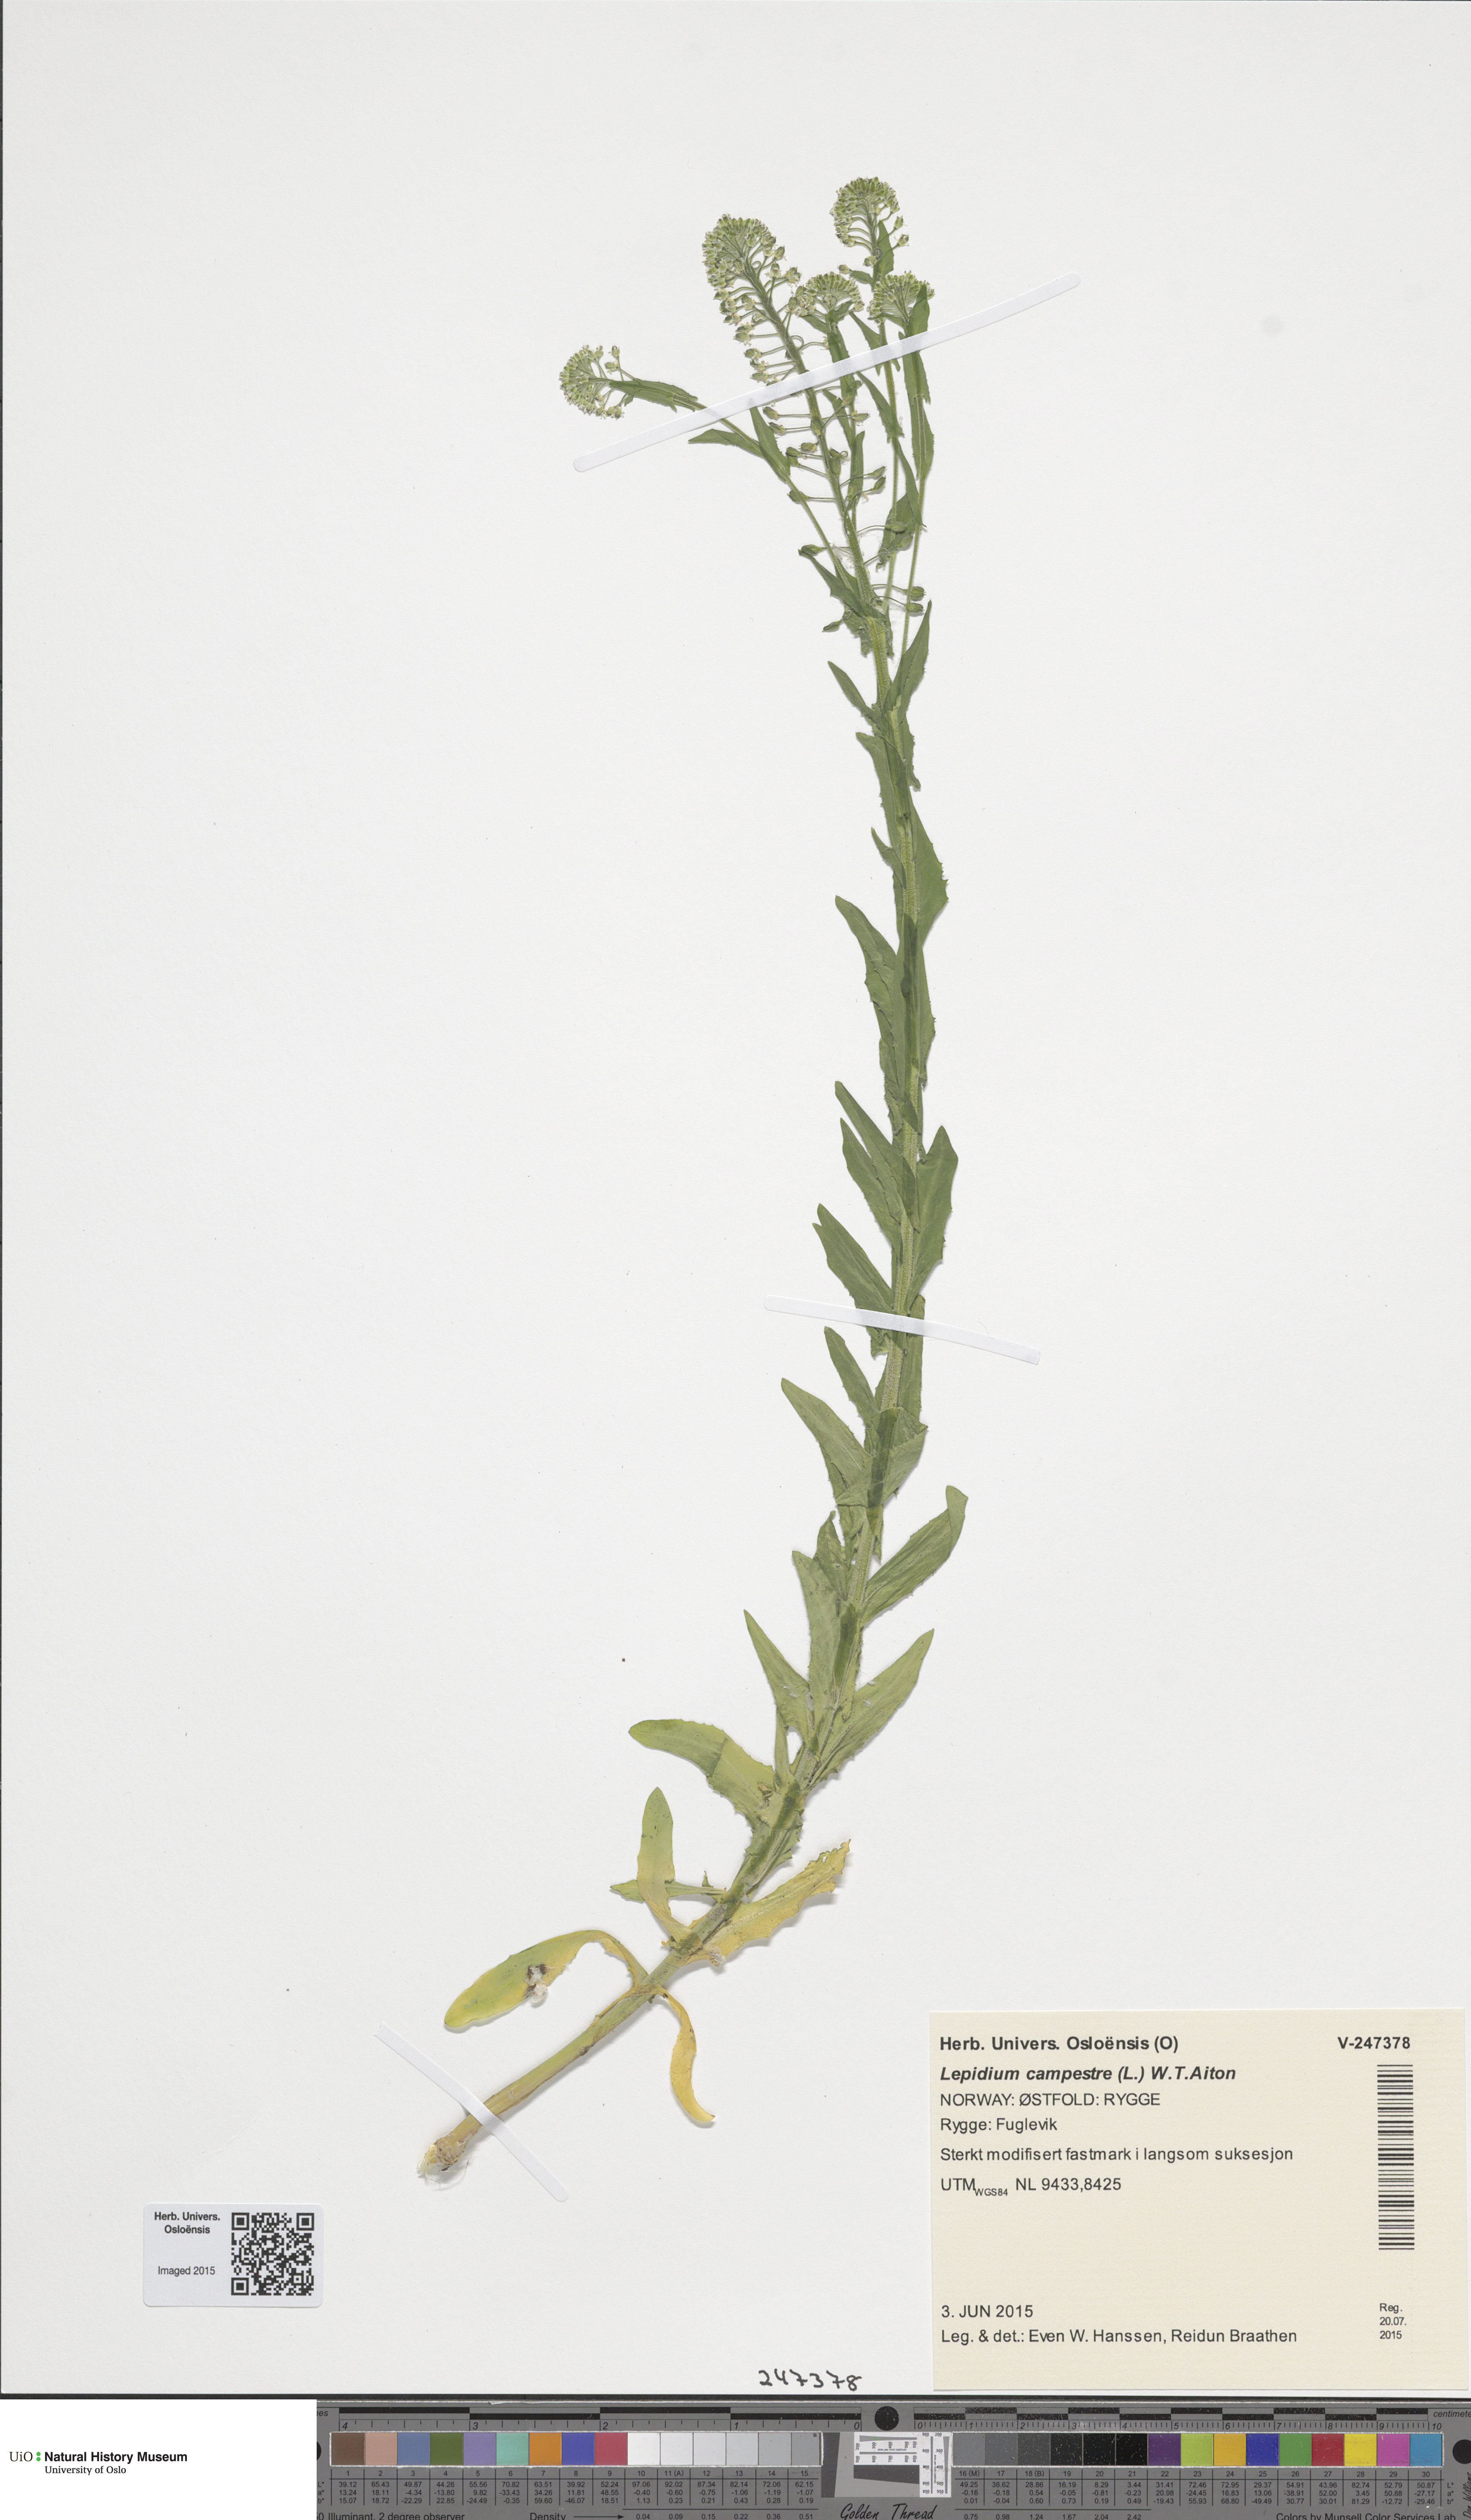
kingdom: Plantae
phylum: Tracheophyta
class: Magnoliopsida
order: Brassicales
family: Brassicaceae
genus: Lepidium
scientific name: Lepidium campestre
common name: Field pepperwort
